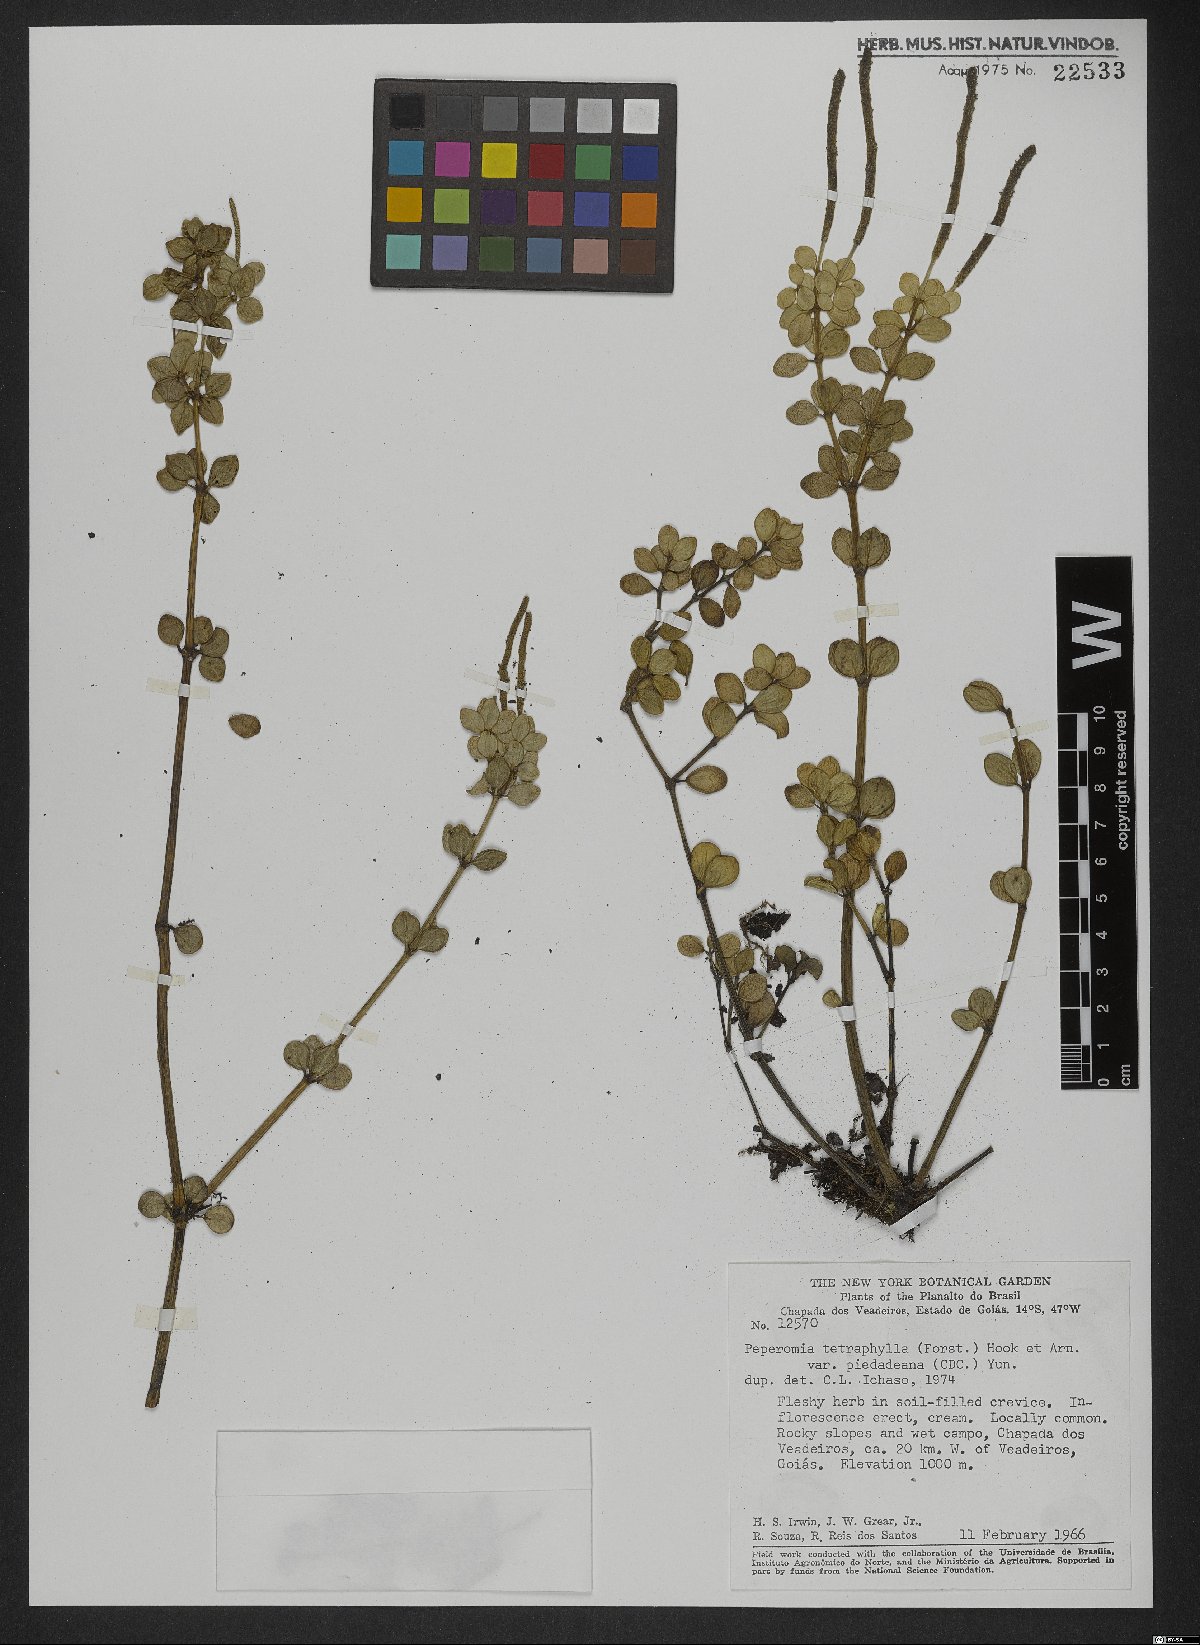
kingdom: Plantae
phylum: Tracheophyta
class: Magnoliopsida
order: Piperales
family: Piperaceae
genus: Peperomia
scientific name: Peperomia tetraphylla
